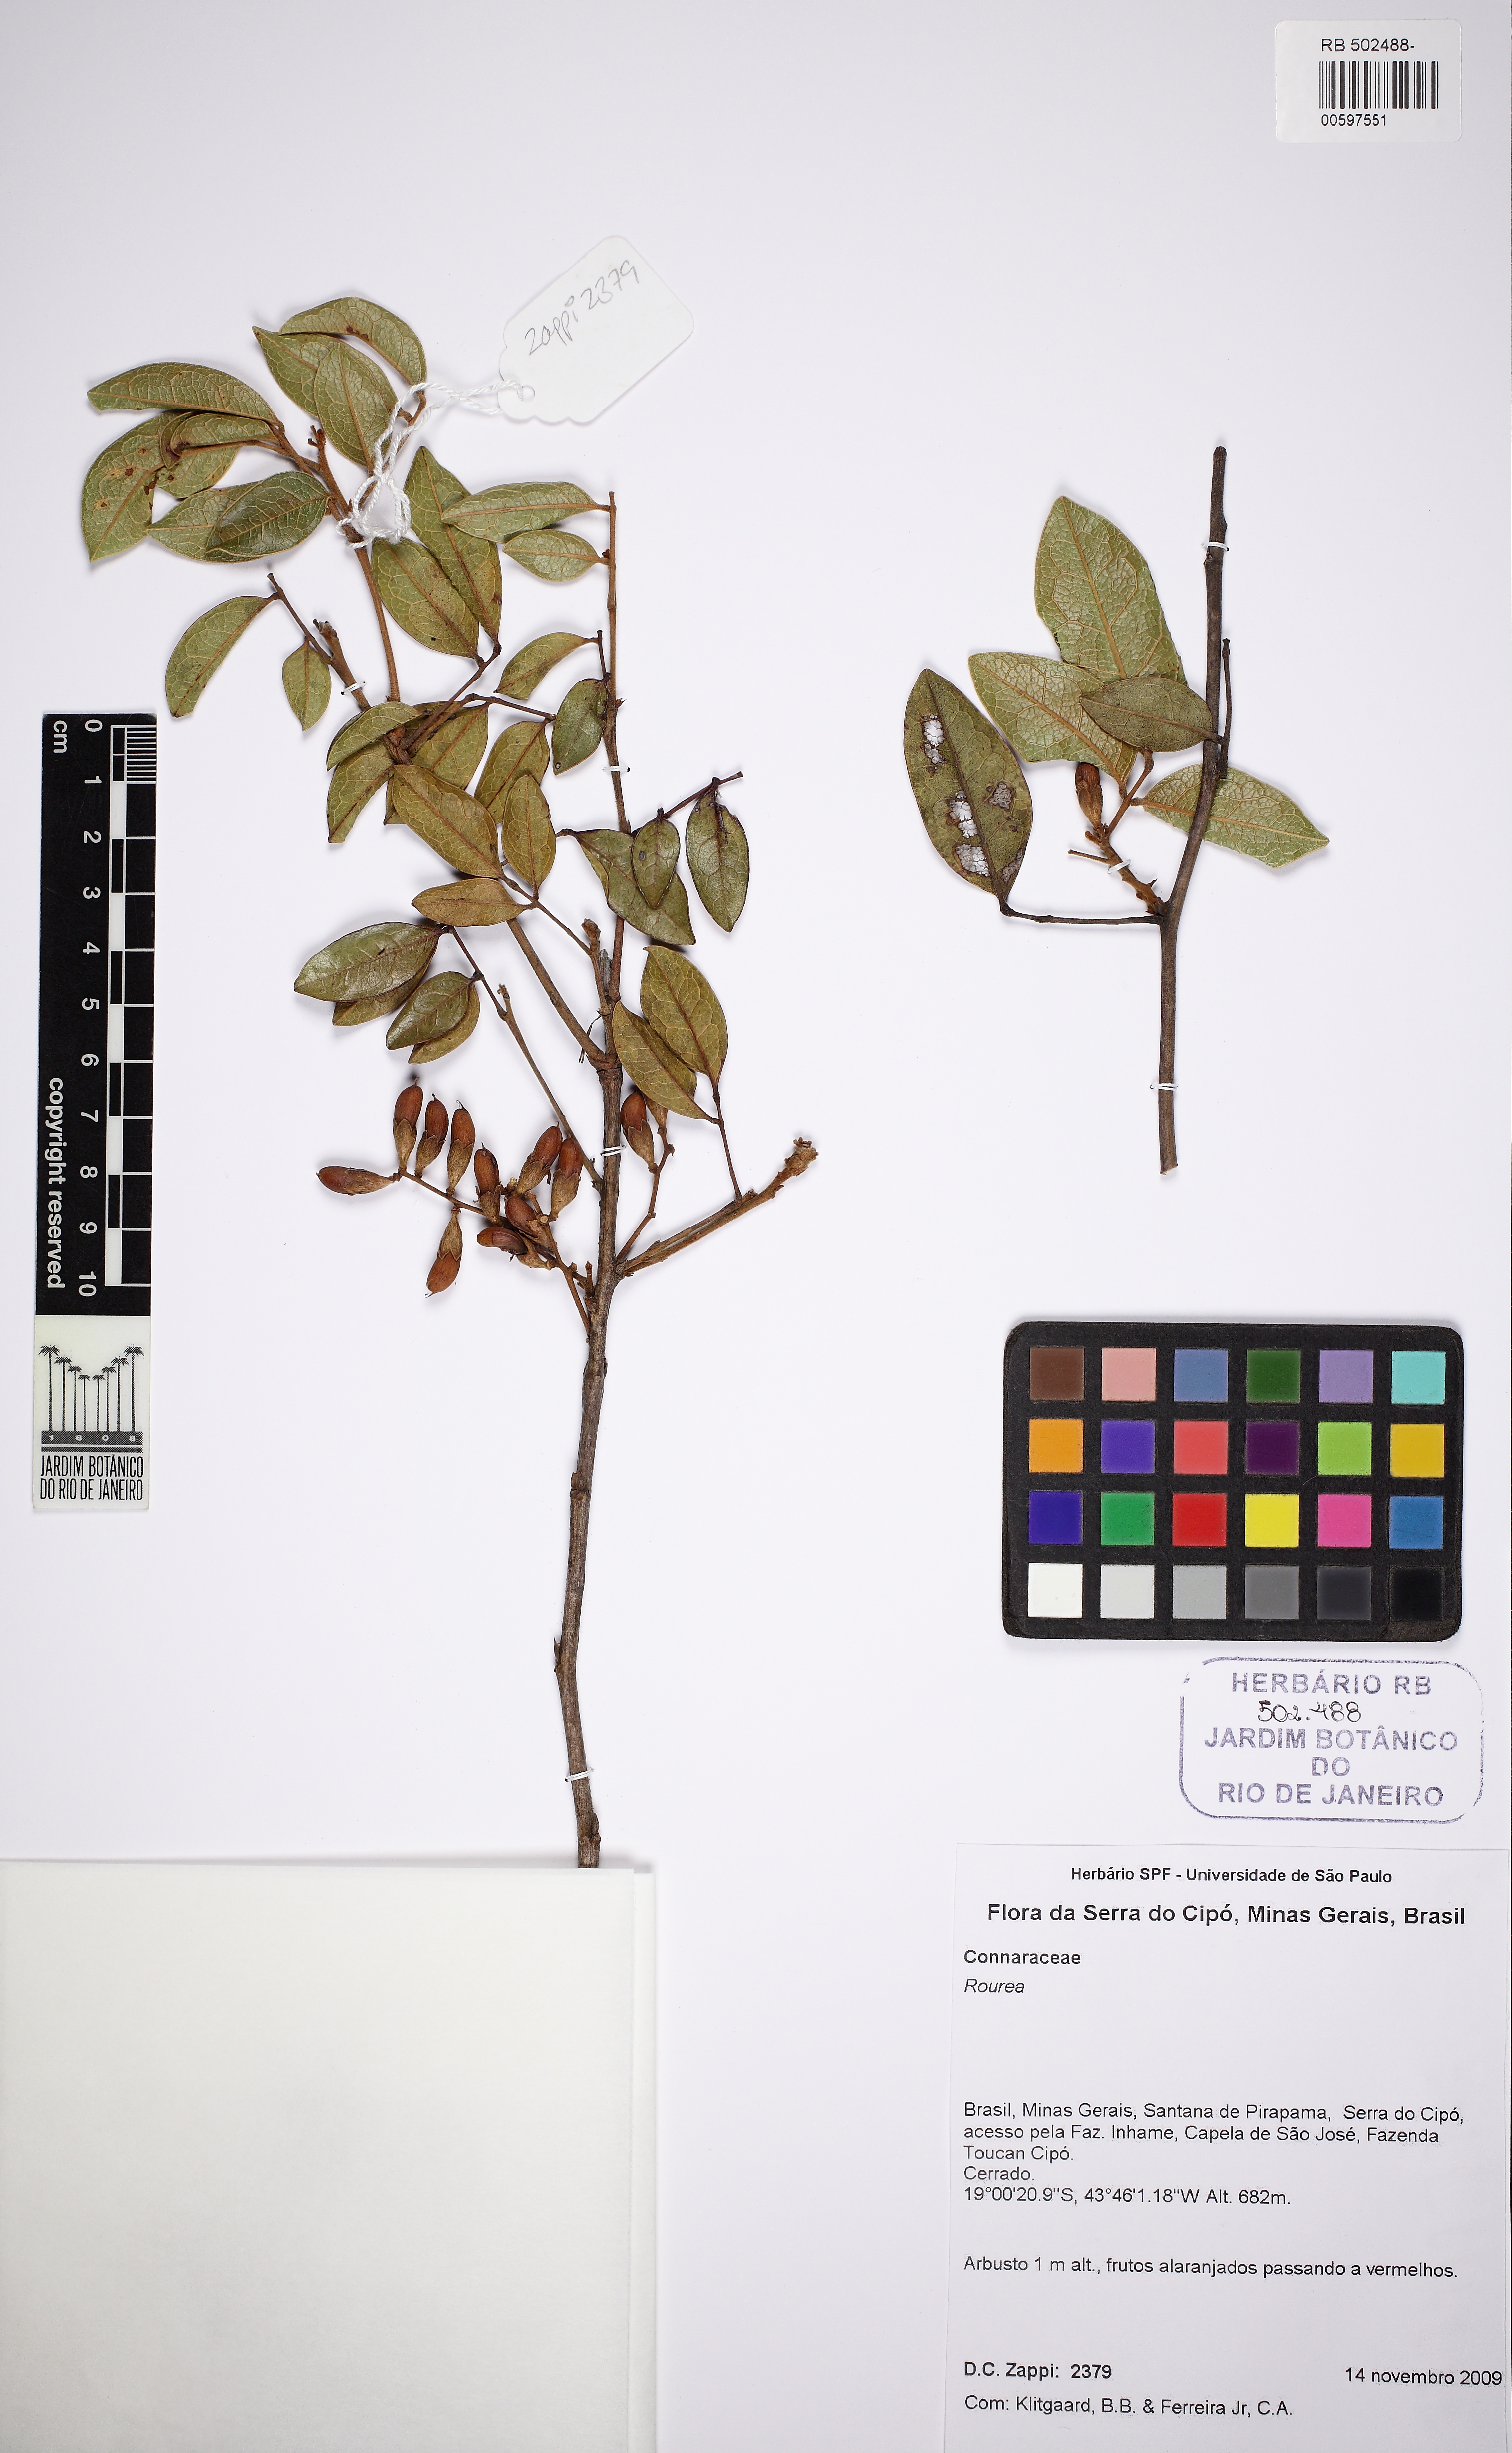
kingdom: Plantae
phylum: Tracheophyta
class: Magnoliopsida
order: Oxalidales
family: Connaraceae
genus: Rourea
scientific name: Rourea
